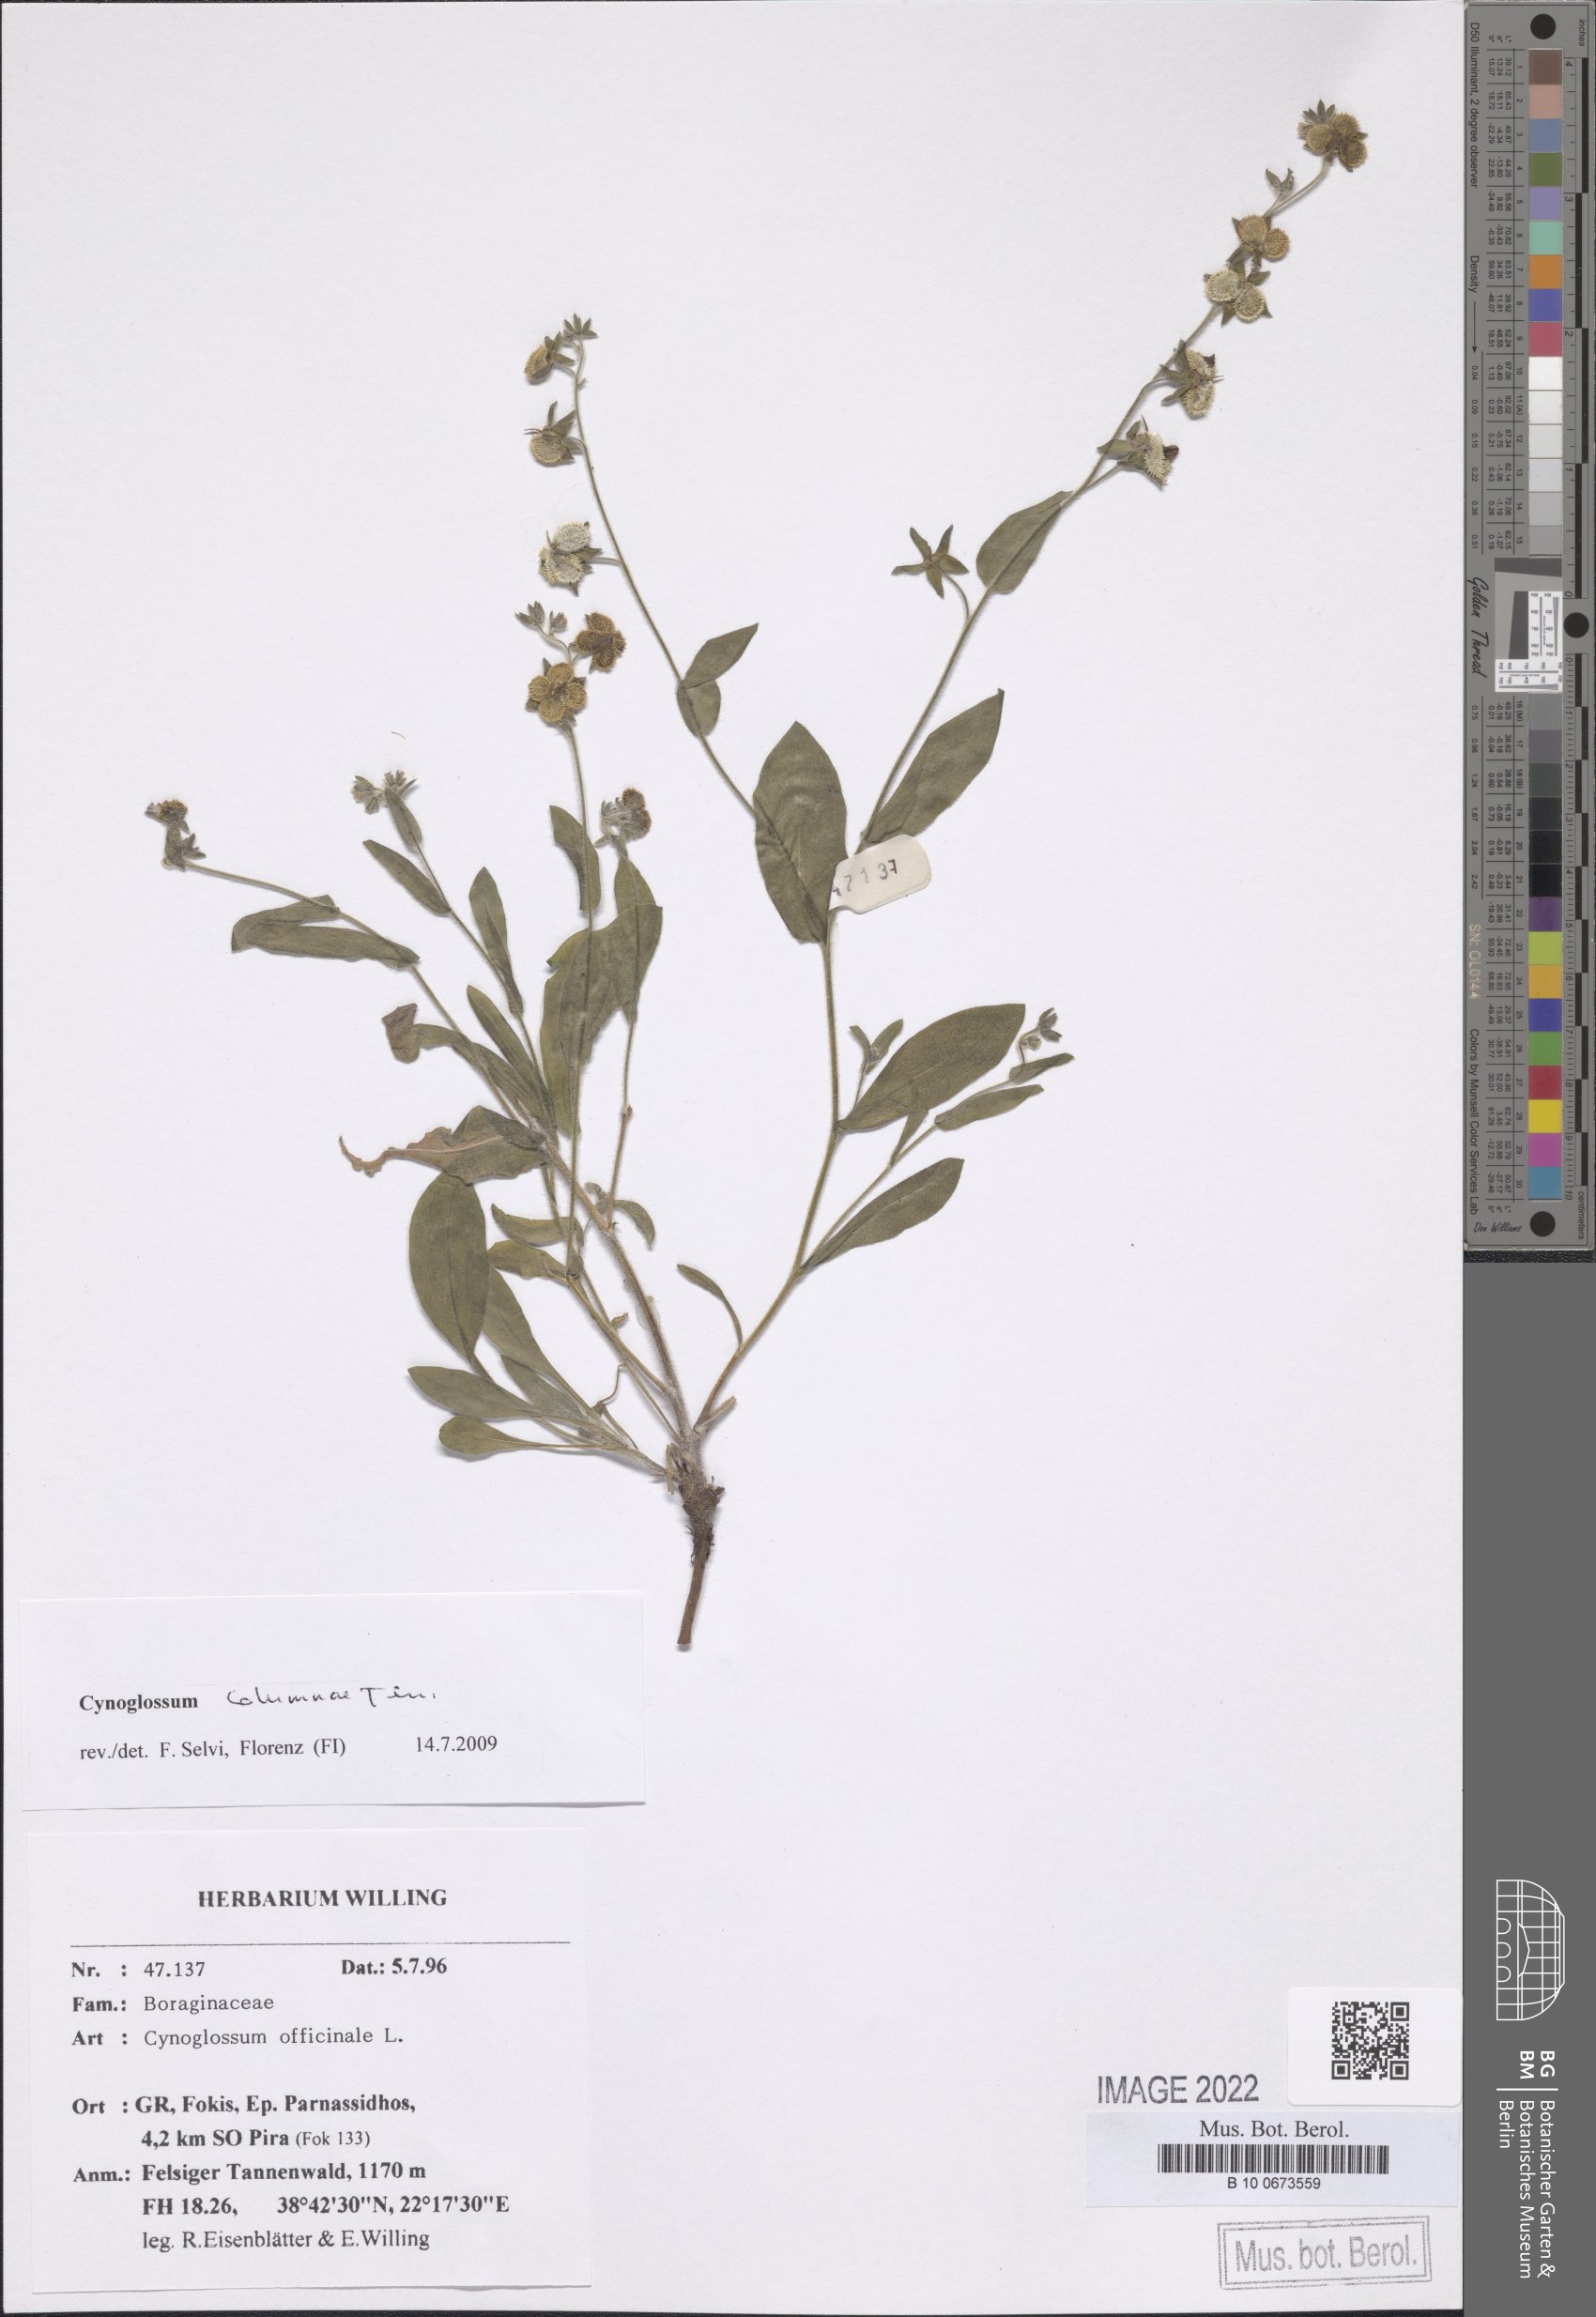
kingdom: Plantae
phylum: Tracheophyta
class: Magnoliopsida
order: Boraginales
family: Boraginaceae
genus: Rindera
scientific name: Rindera columnae
